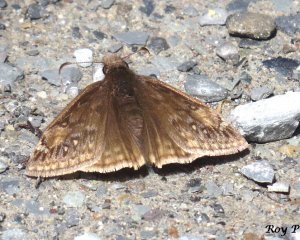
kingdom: Animalia
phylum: Arthropoda
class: Insecta
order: Lepidoptera
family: Hesperiidae
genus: Gesta
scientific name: Gesta
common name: Juvenal's Duskywing
